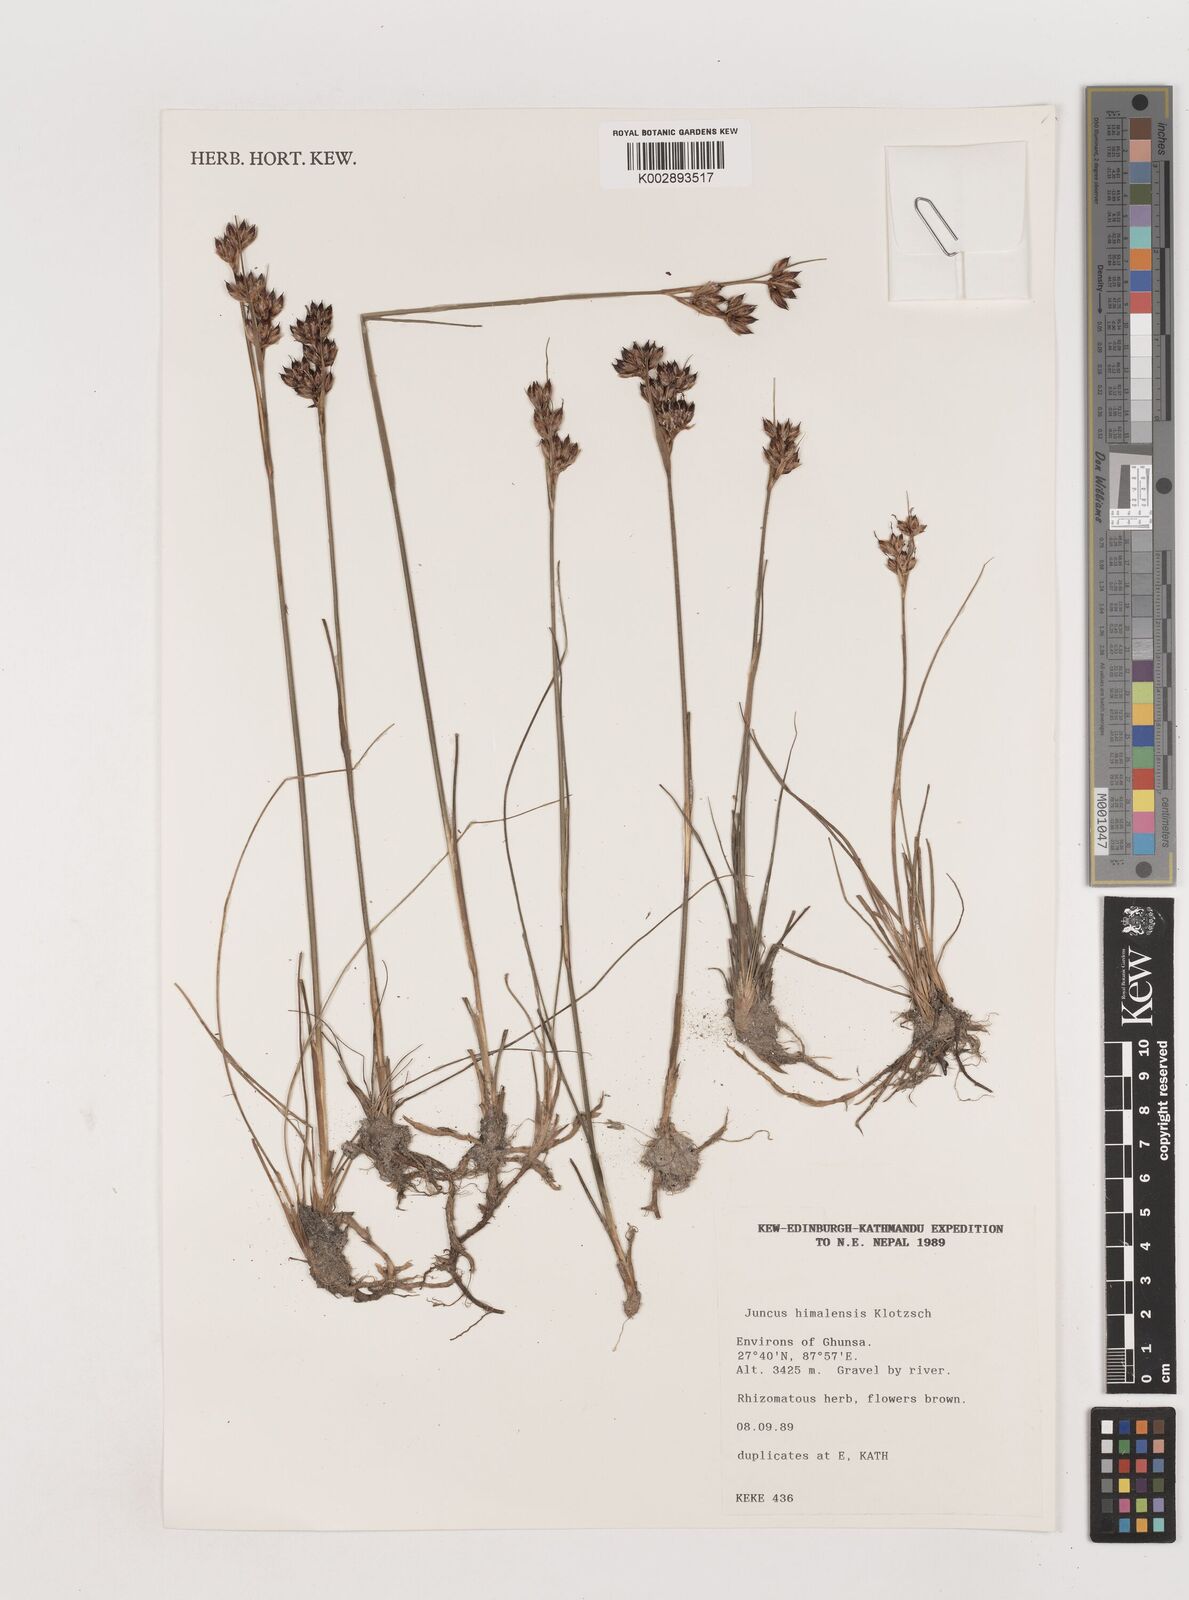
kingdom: Plantae
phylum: Tracheophyta
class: Liliopsida
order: Poales
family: Juncaceae
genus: Juncus
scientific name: Juncus himalensis
